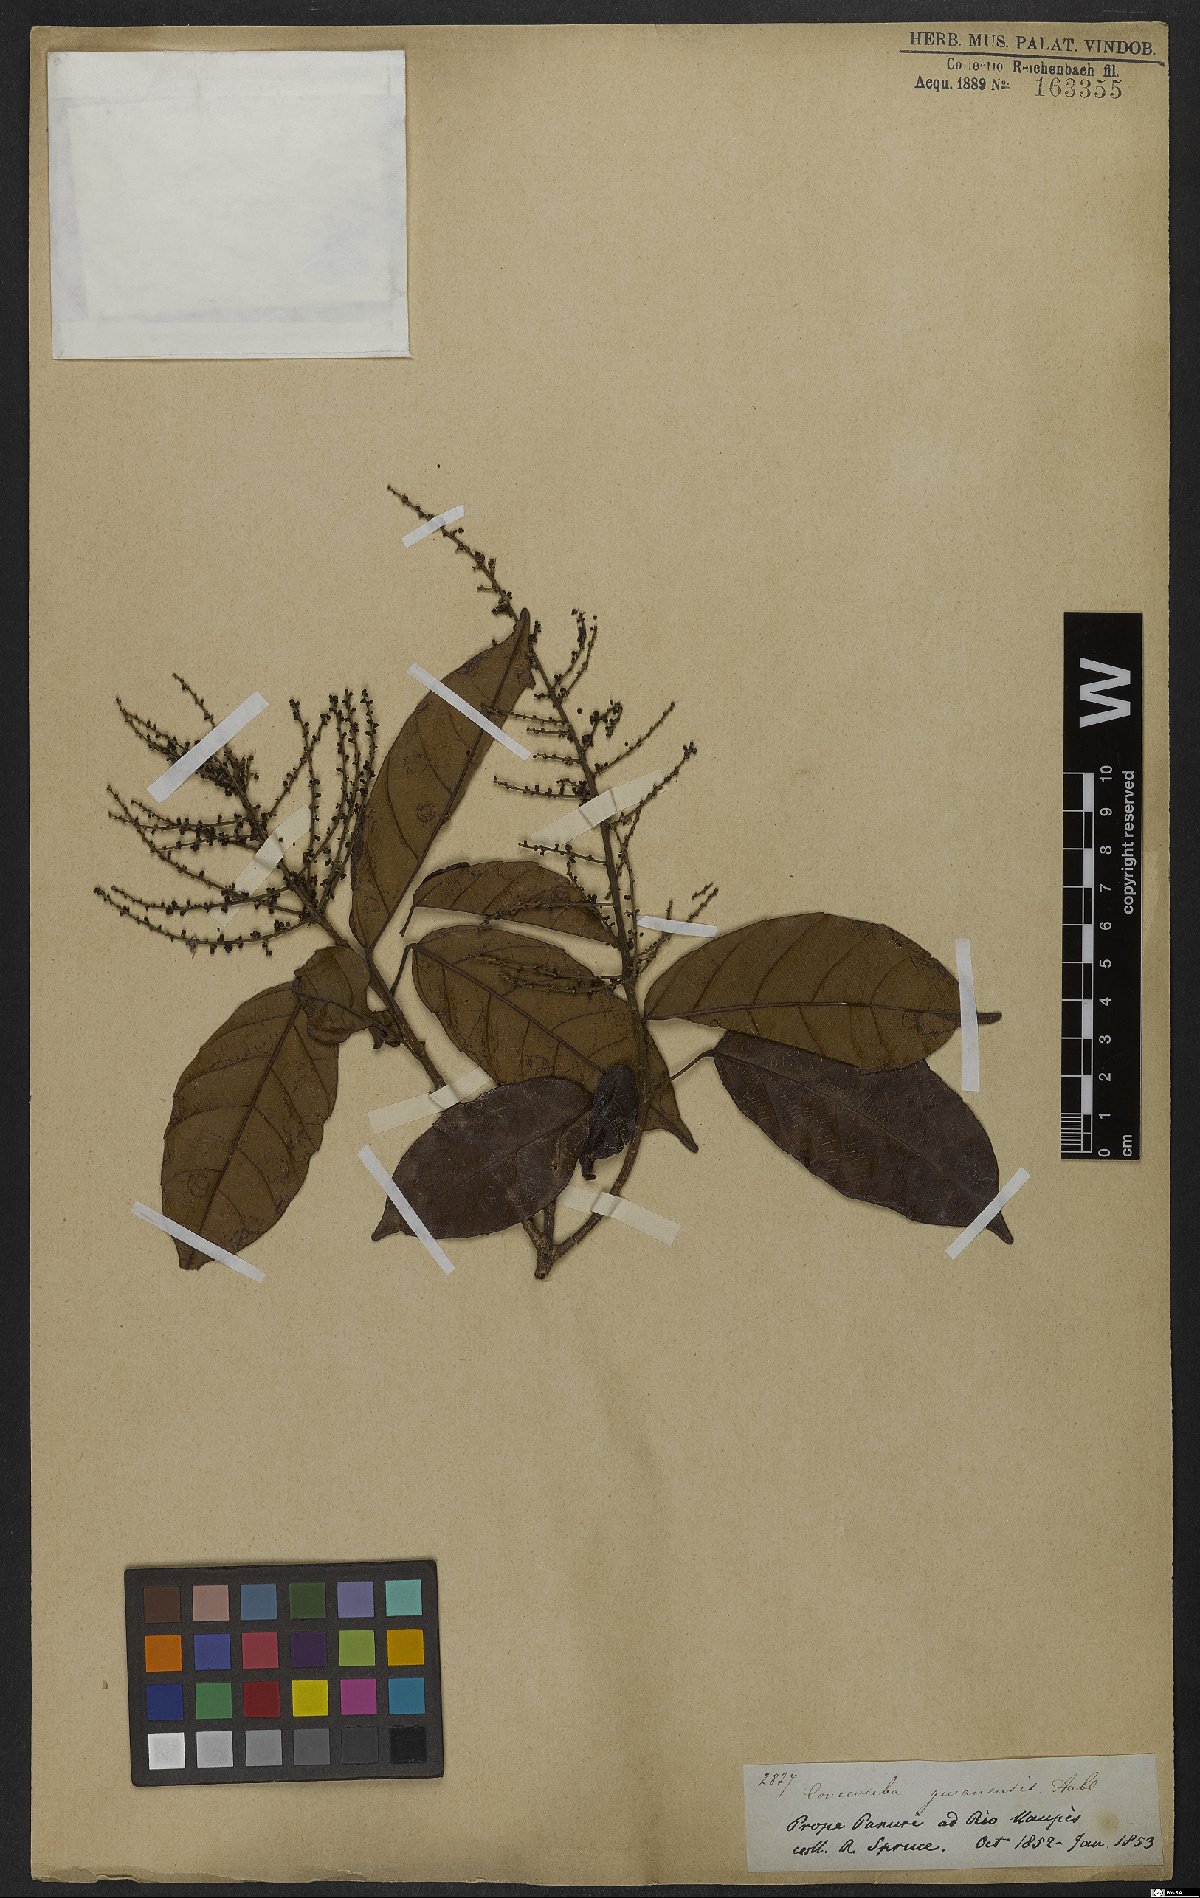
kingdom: Plantae
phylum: Tracheophyta
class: Magnoliopsida
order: Malpighiales
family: Euphorbiaceae
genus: Conceveiba
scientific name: Conceveiba guianensis
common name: Poatoru
